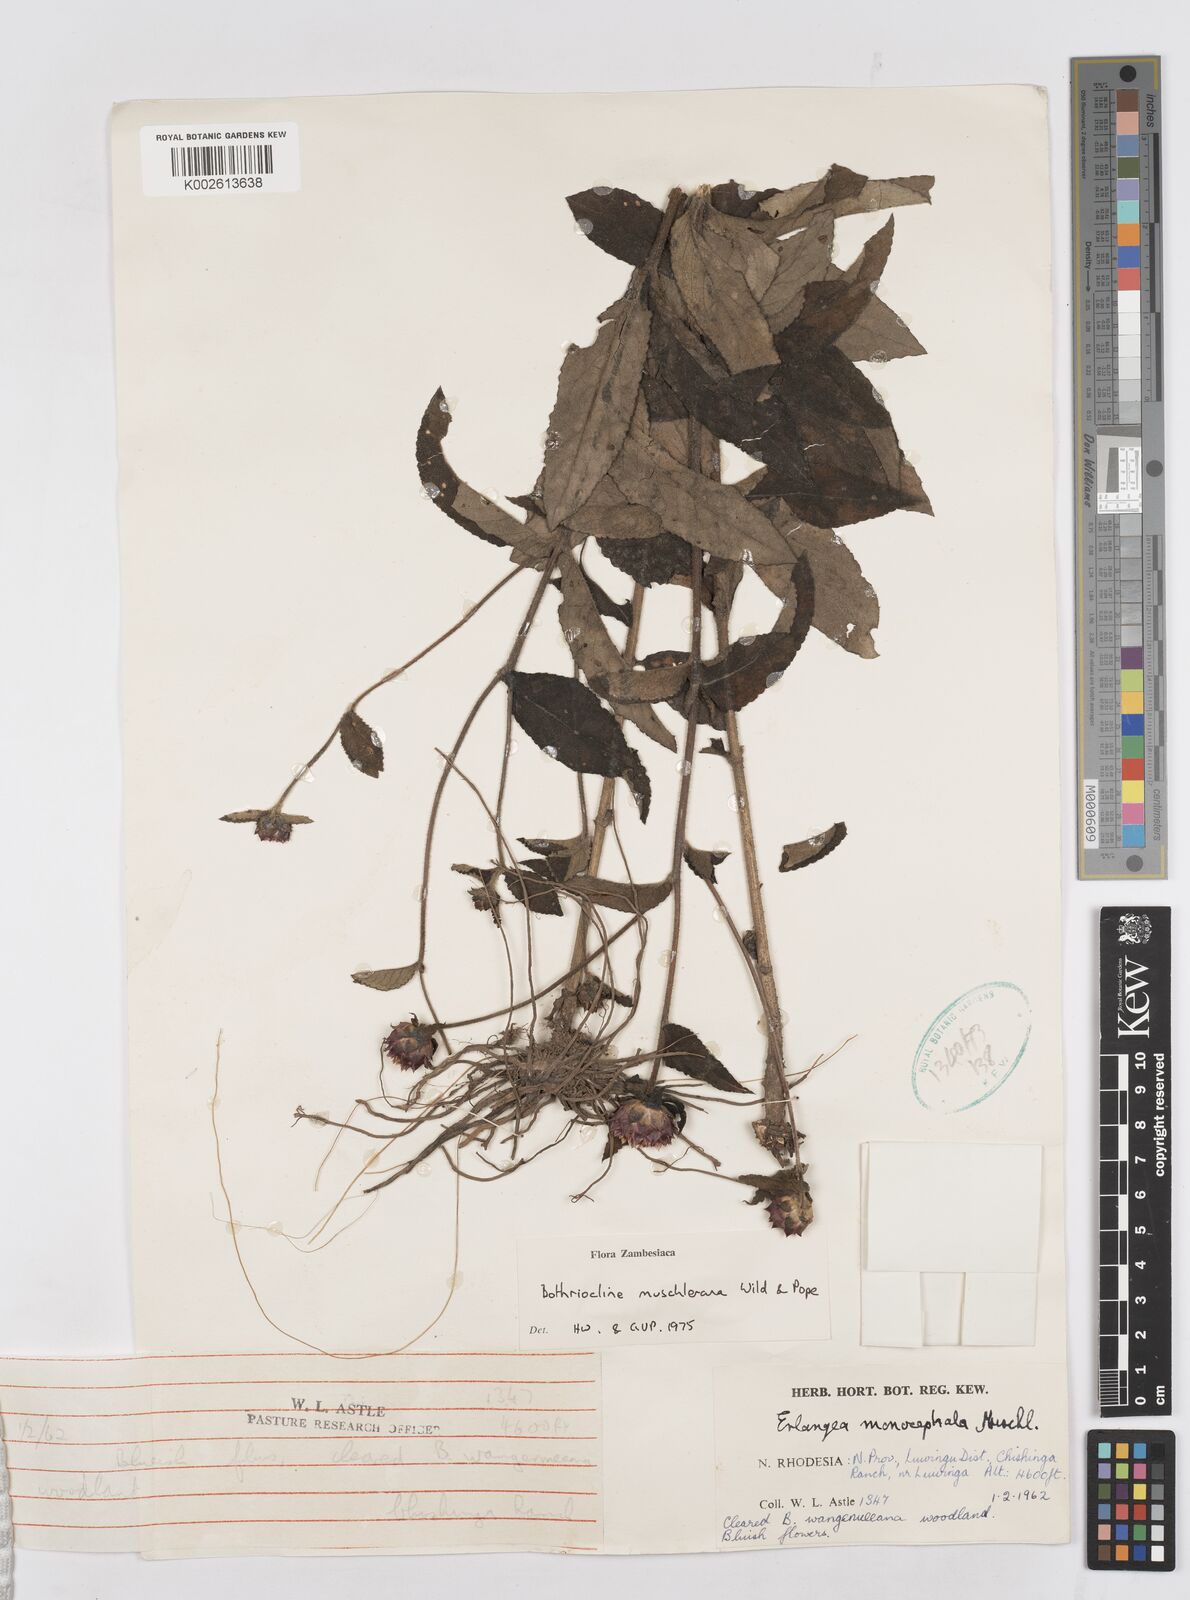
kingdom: Plantae
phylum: Tracheophyta
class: Magnoliopsida
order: Asterales
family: Asteraceae
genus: Bothriocline
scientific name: Bothriocline muschleriana
